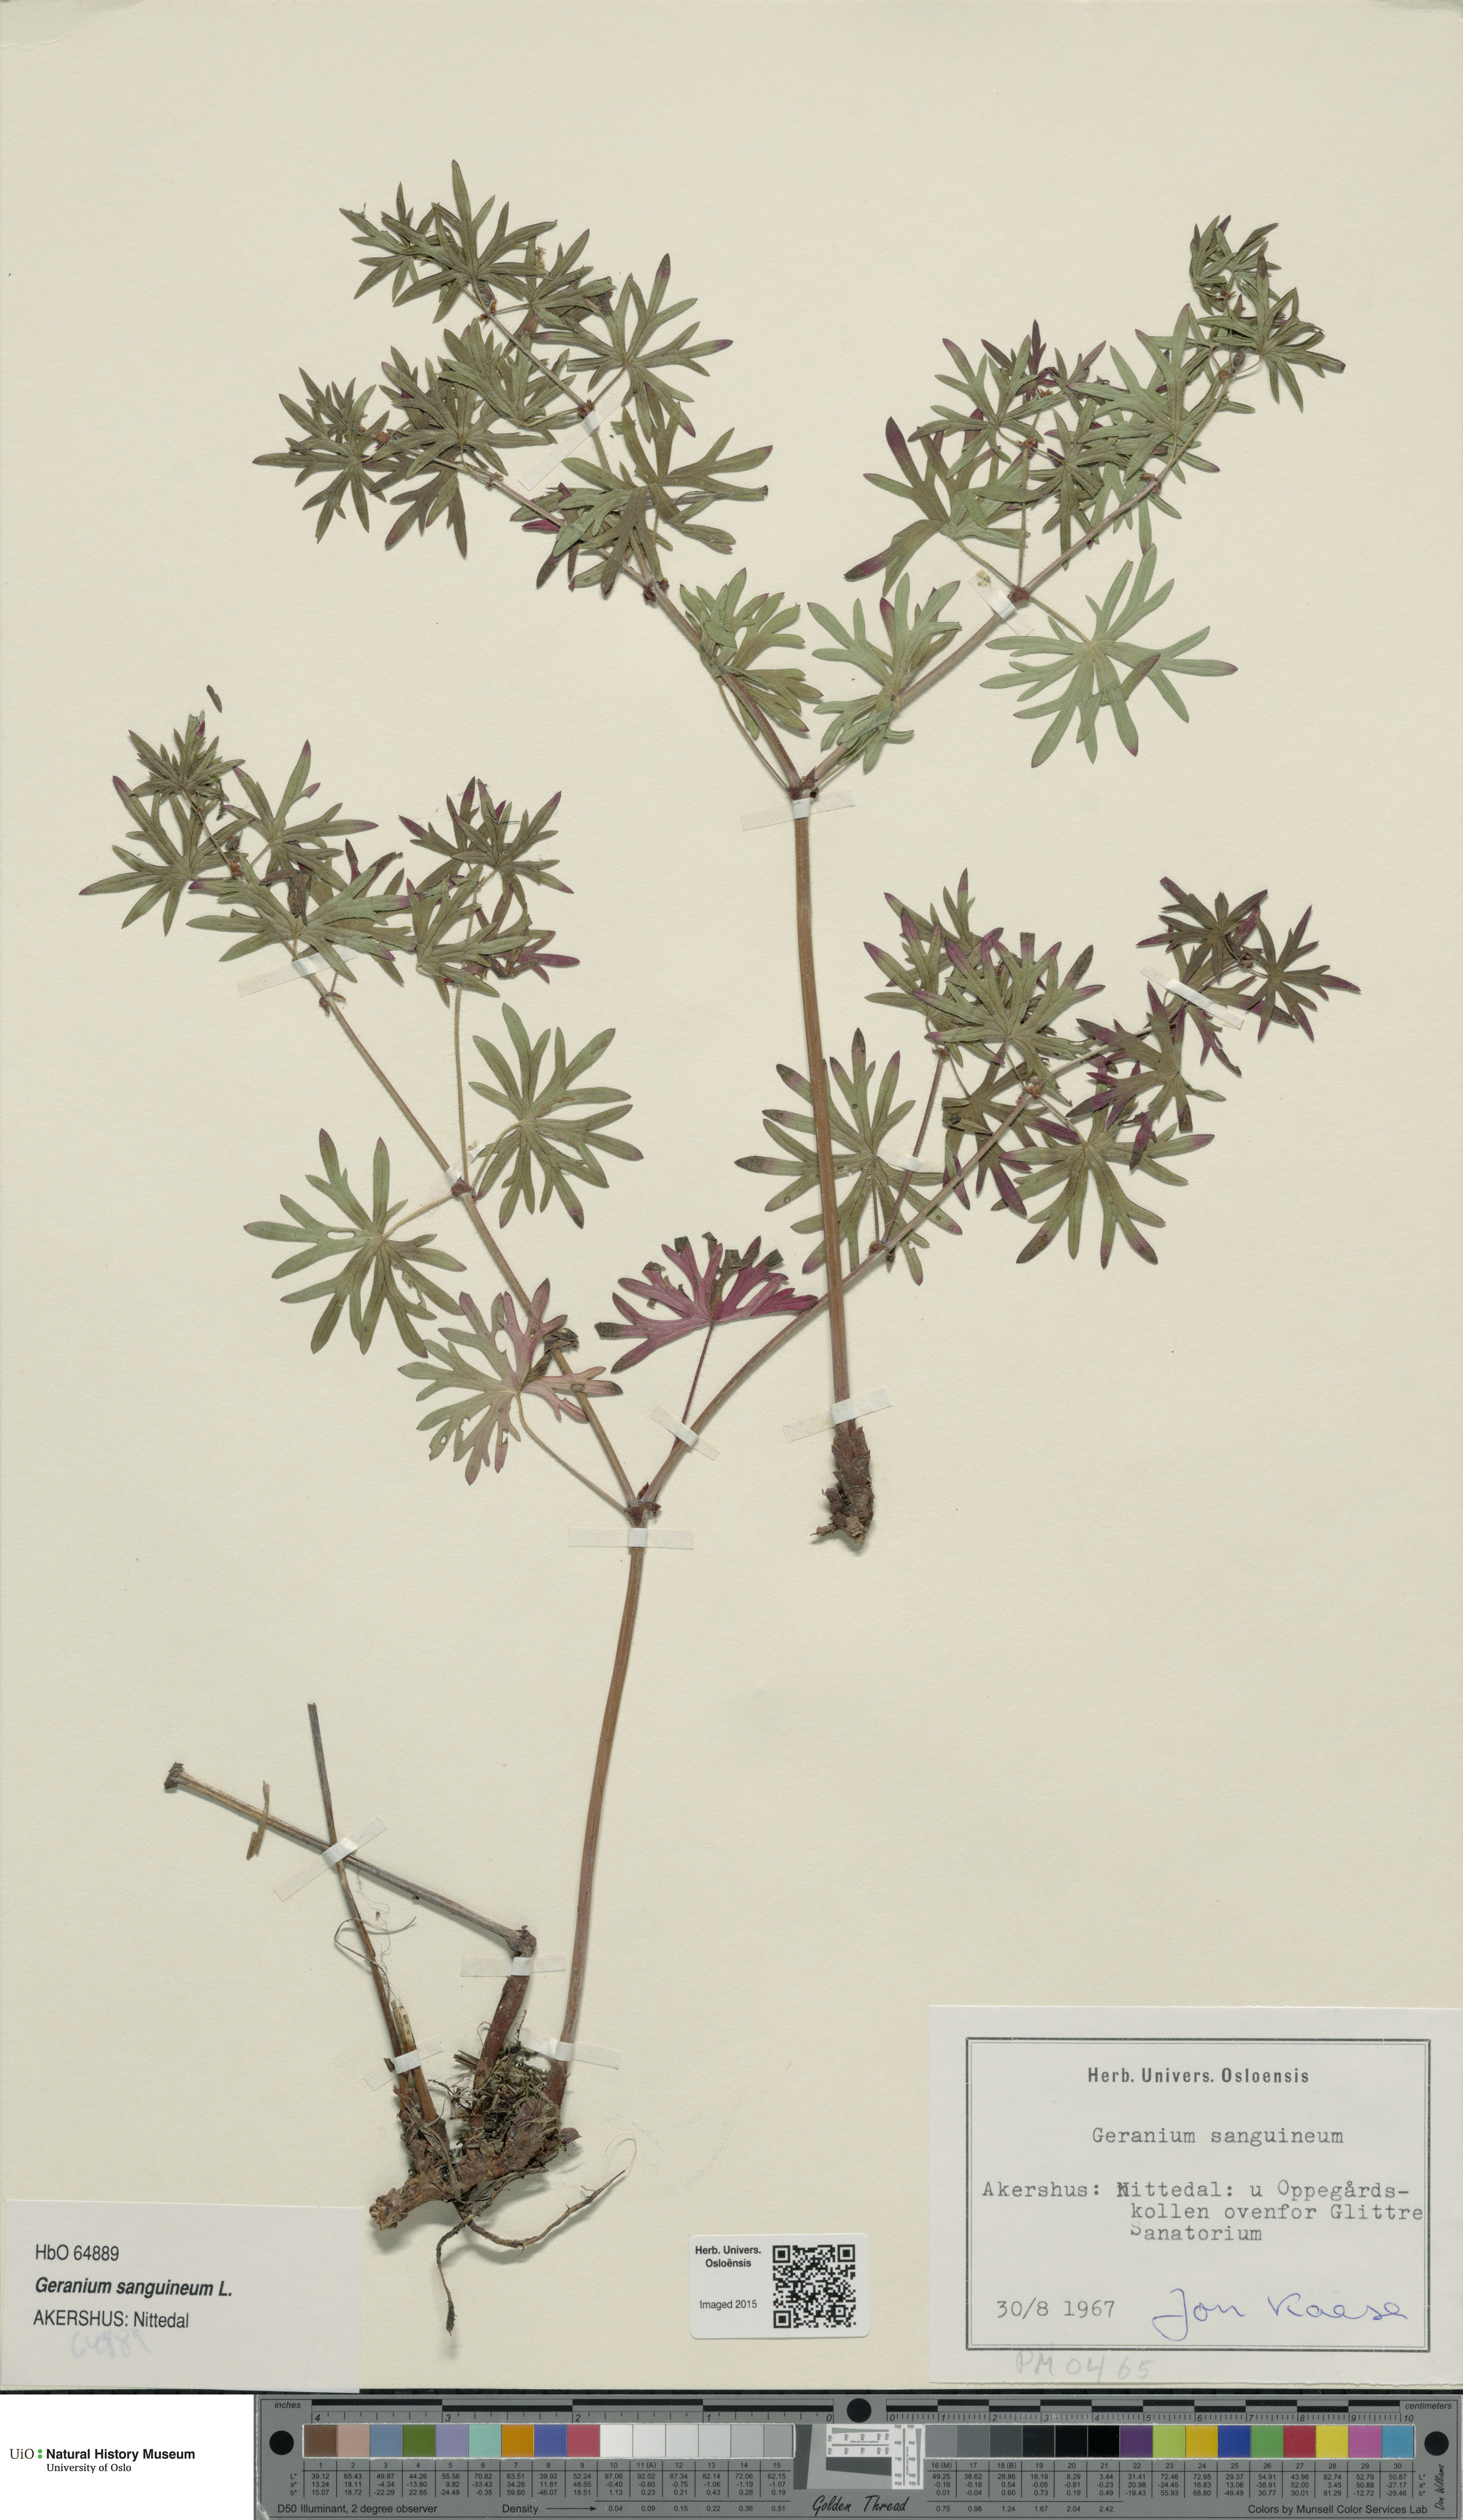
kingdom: Plantae
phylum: Tracheophyta
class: Magnoliopsida
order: Geraniales
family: Geraniaceae
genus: Geranium
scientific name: Geranium sanguineum
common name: Bloody crane's-bill
